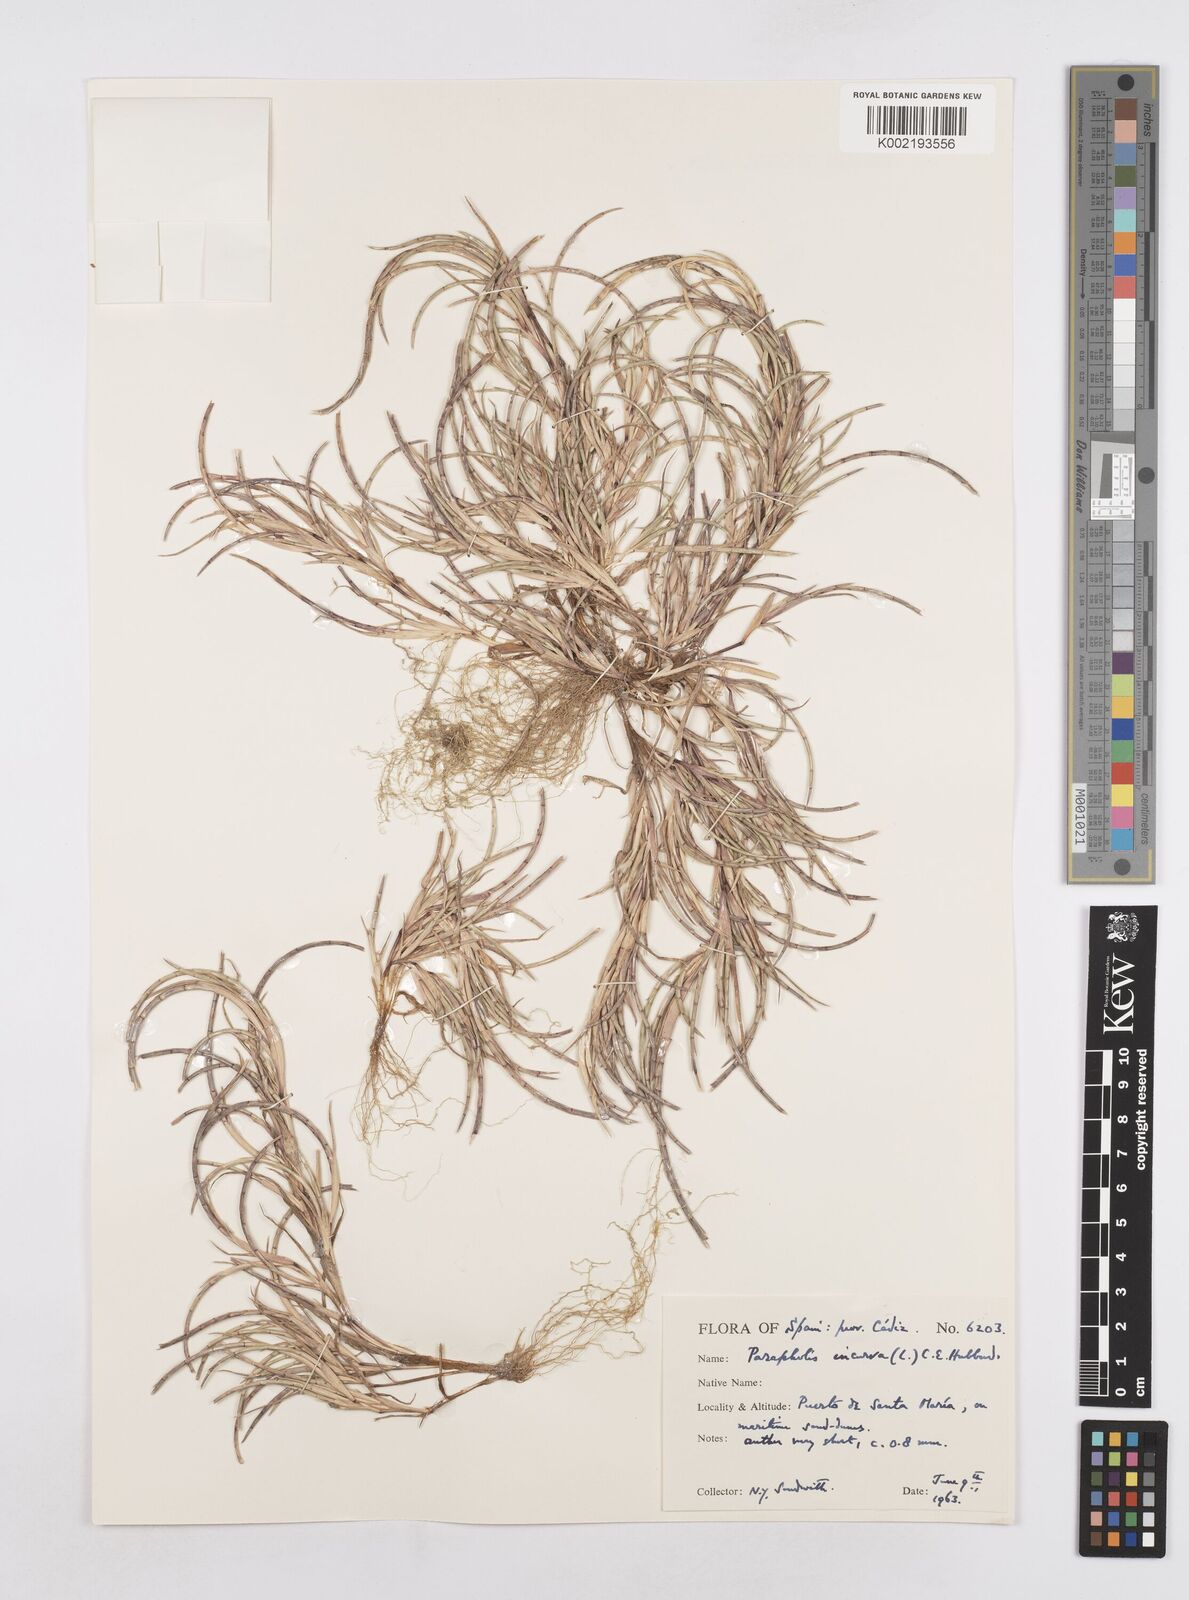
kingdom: Plantae
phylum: Tracheophyta
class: Liliopsida
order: Poales
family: Poaceae
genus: Parapholis
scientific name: Parapholis incurva
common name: Curved sicklegrass
